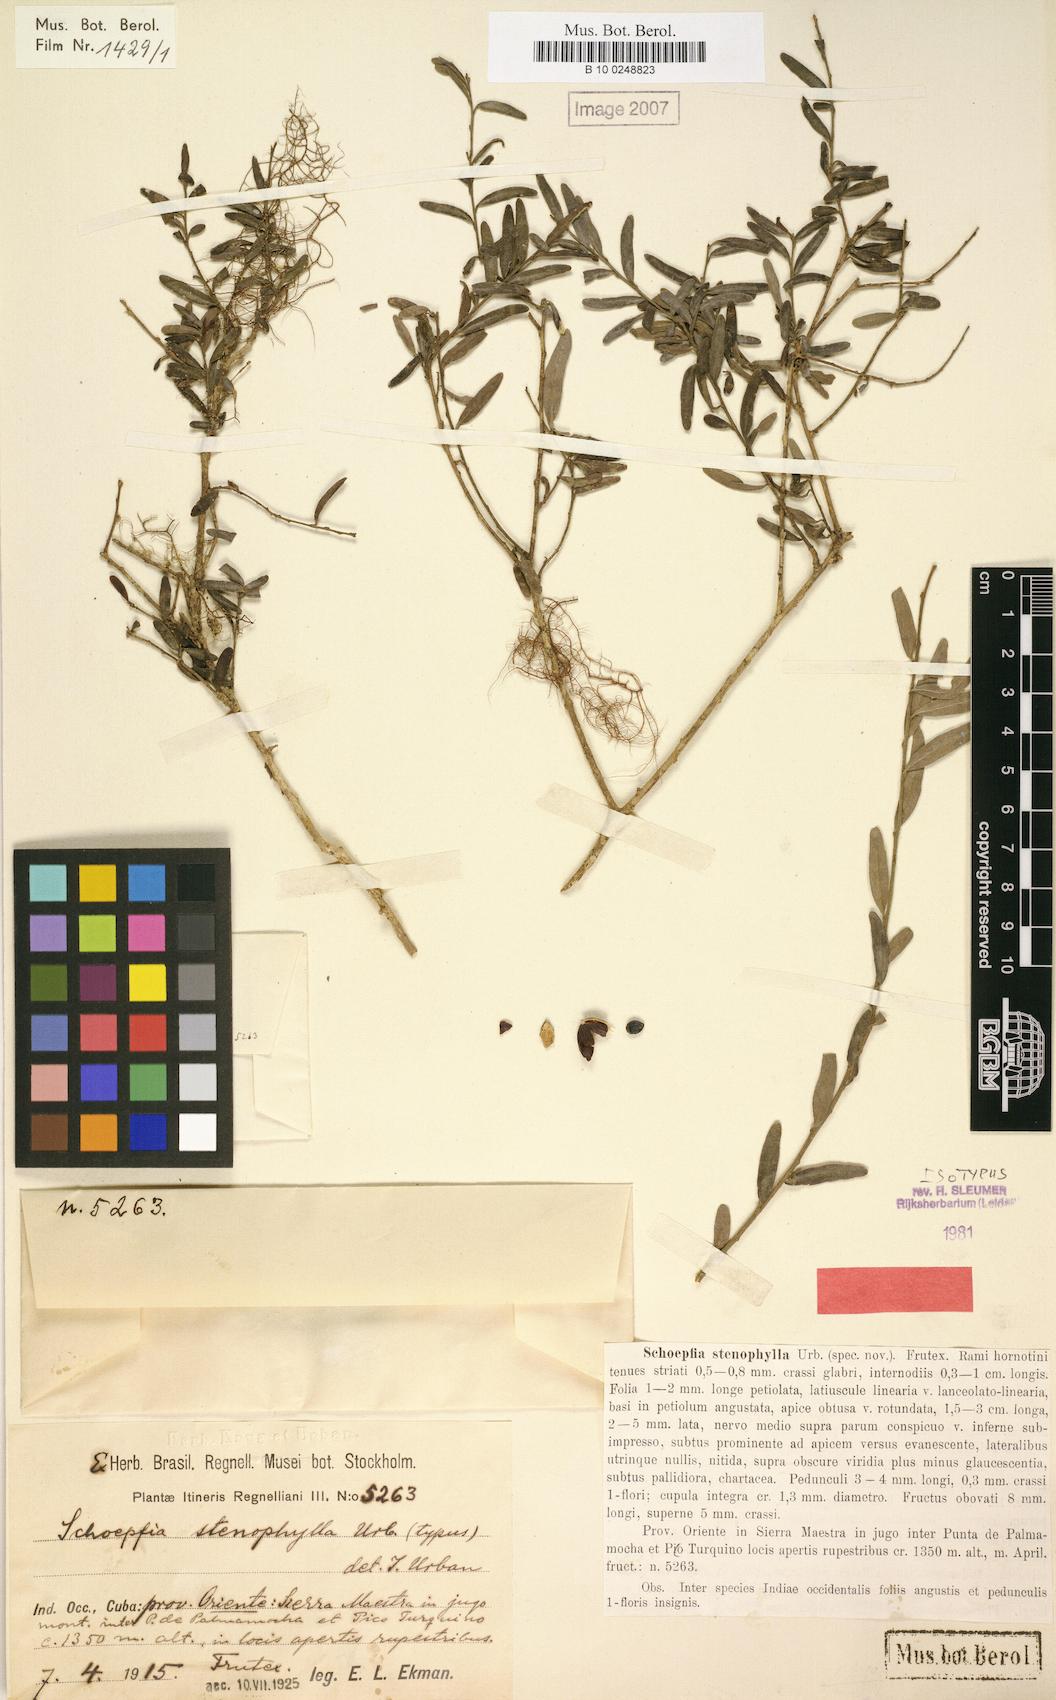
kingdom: Plantae
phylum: Tracheophyta
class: Magnoliopsida
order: Santalales
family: Schoepfiaceae
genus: Schoepfia
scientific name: Schoepfia stenophylla
